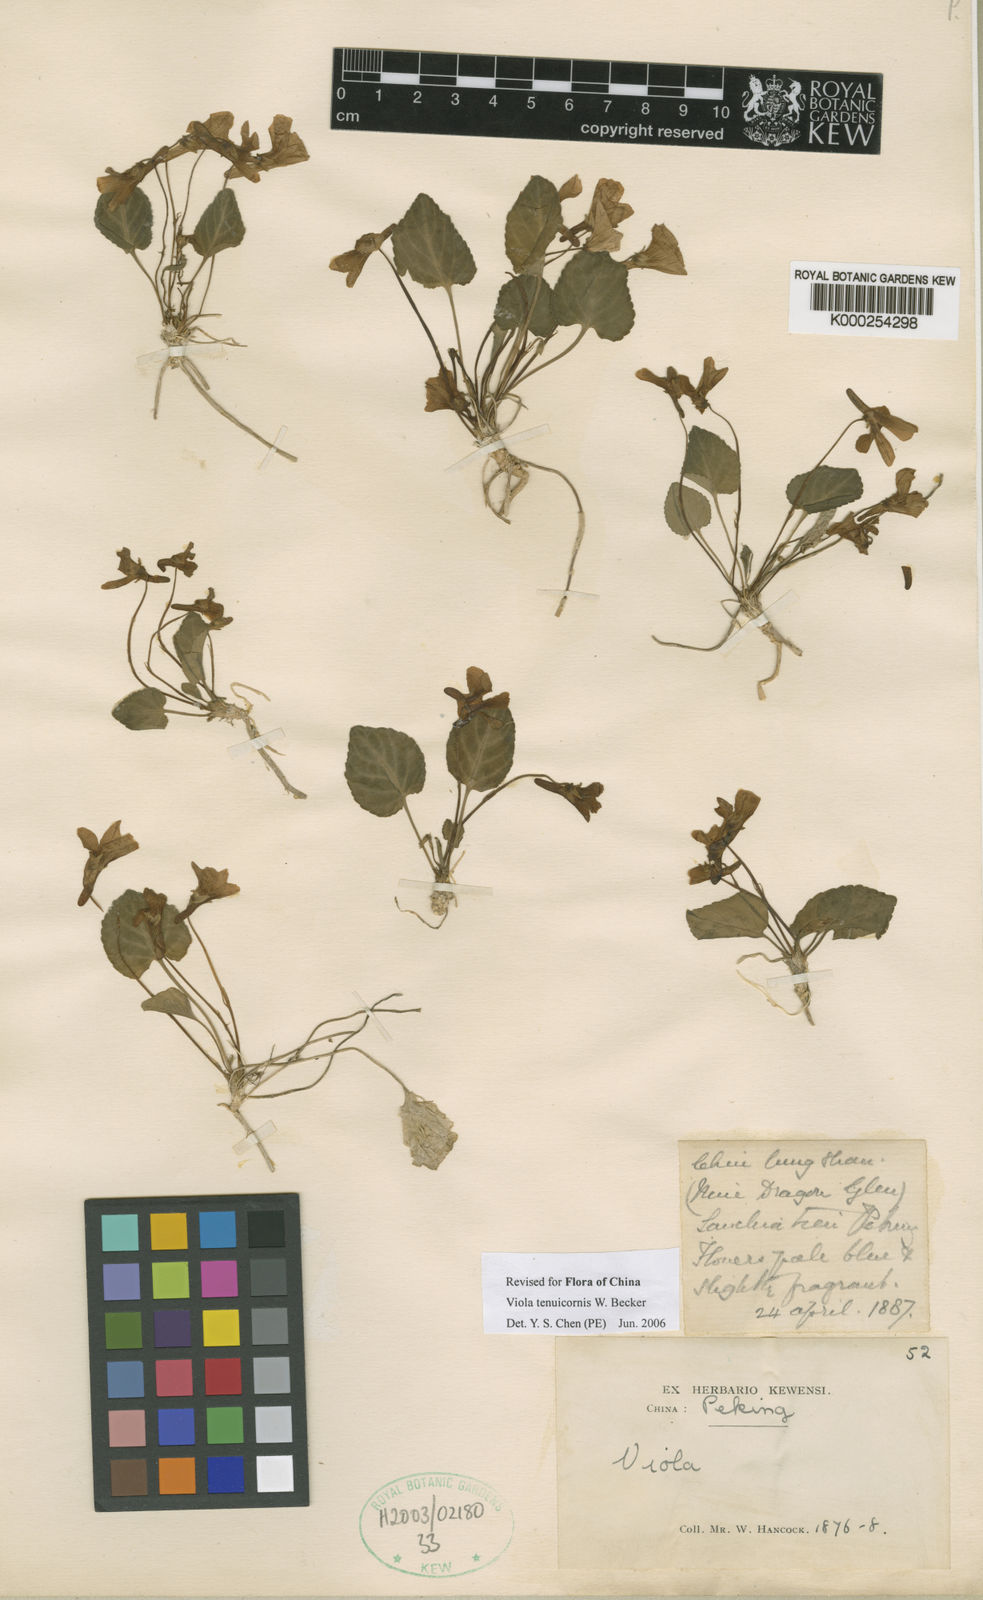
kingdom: Plantae
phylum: Tracheophyta
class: Magnoliopsida
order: Malpighiales
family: Violaceae
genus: Viola
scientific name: Viola tenuicornis
